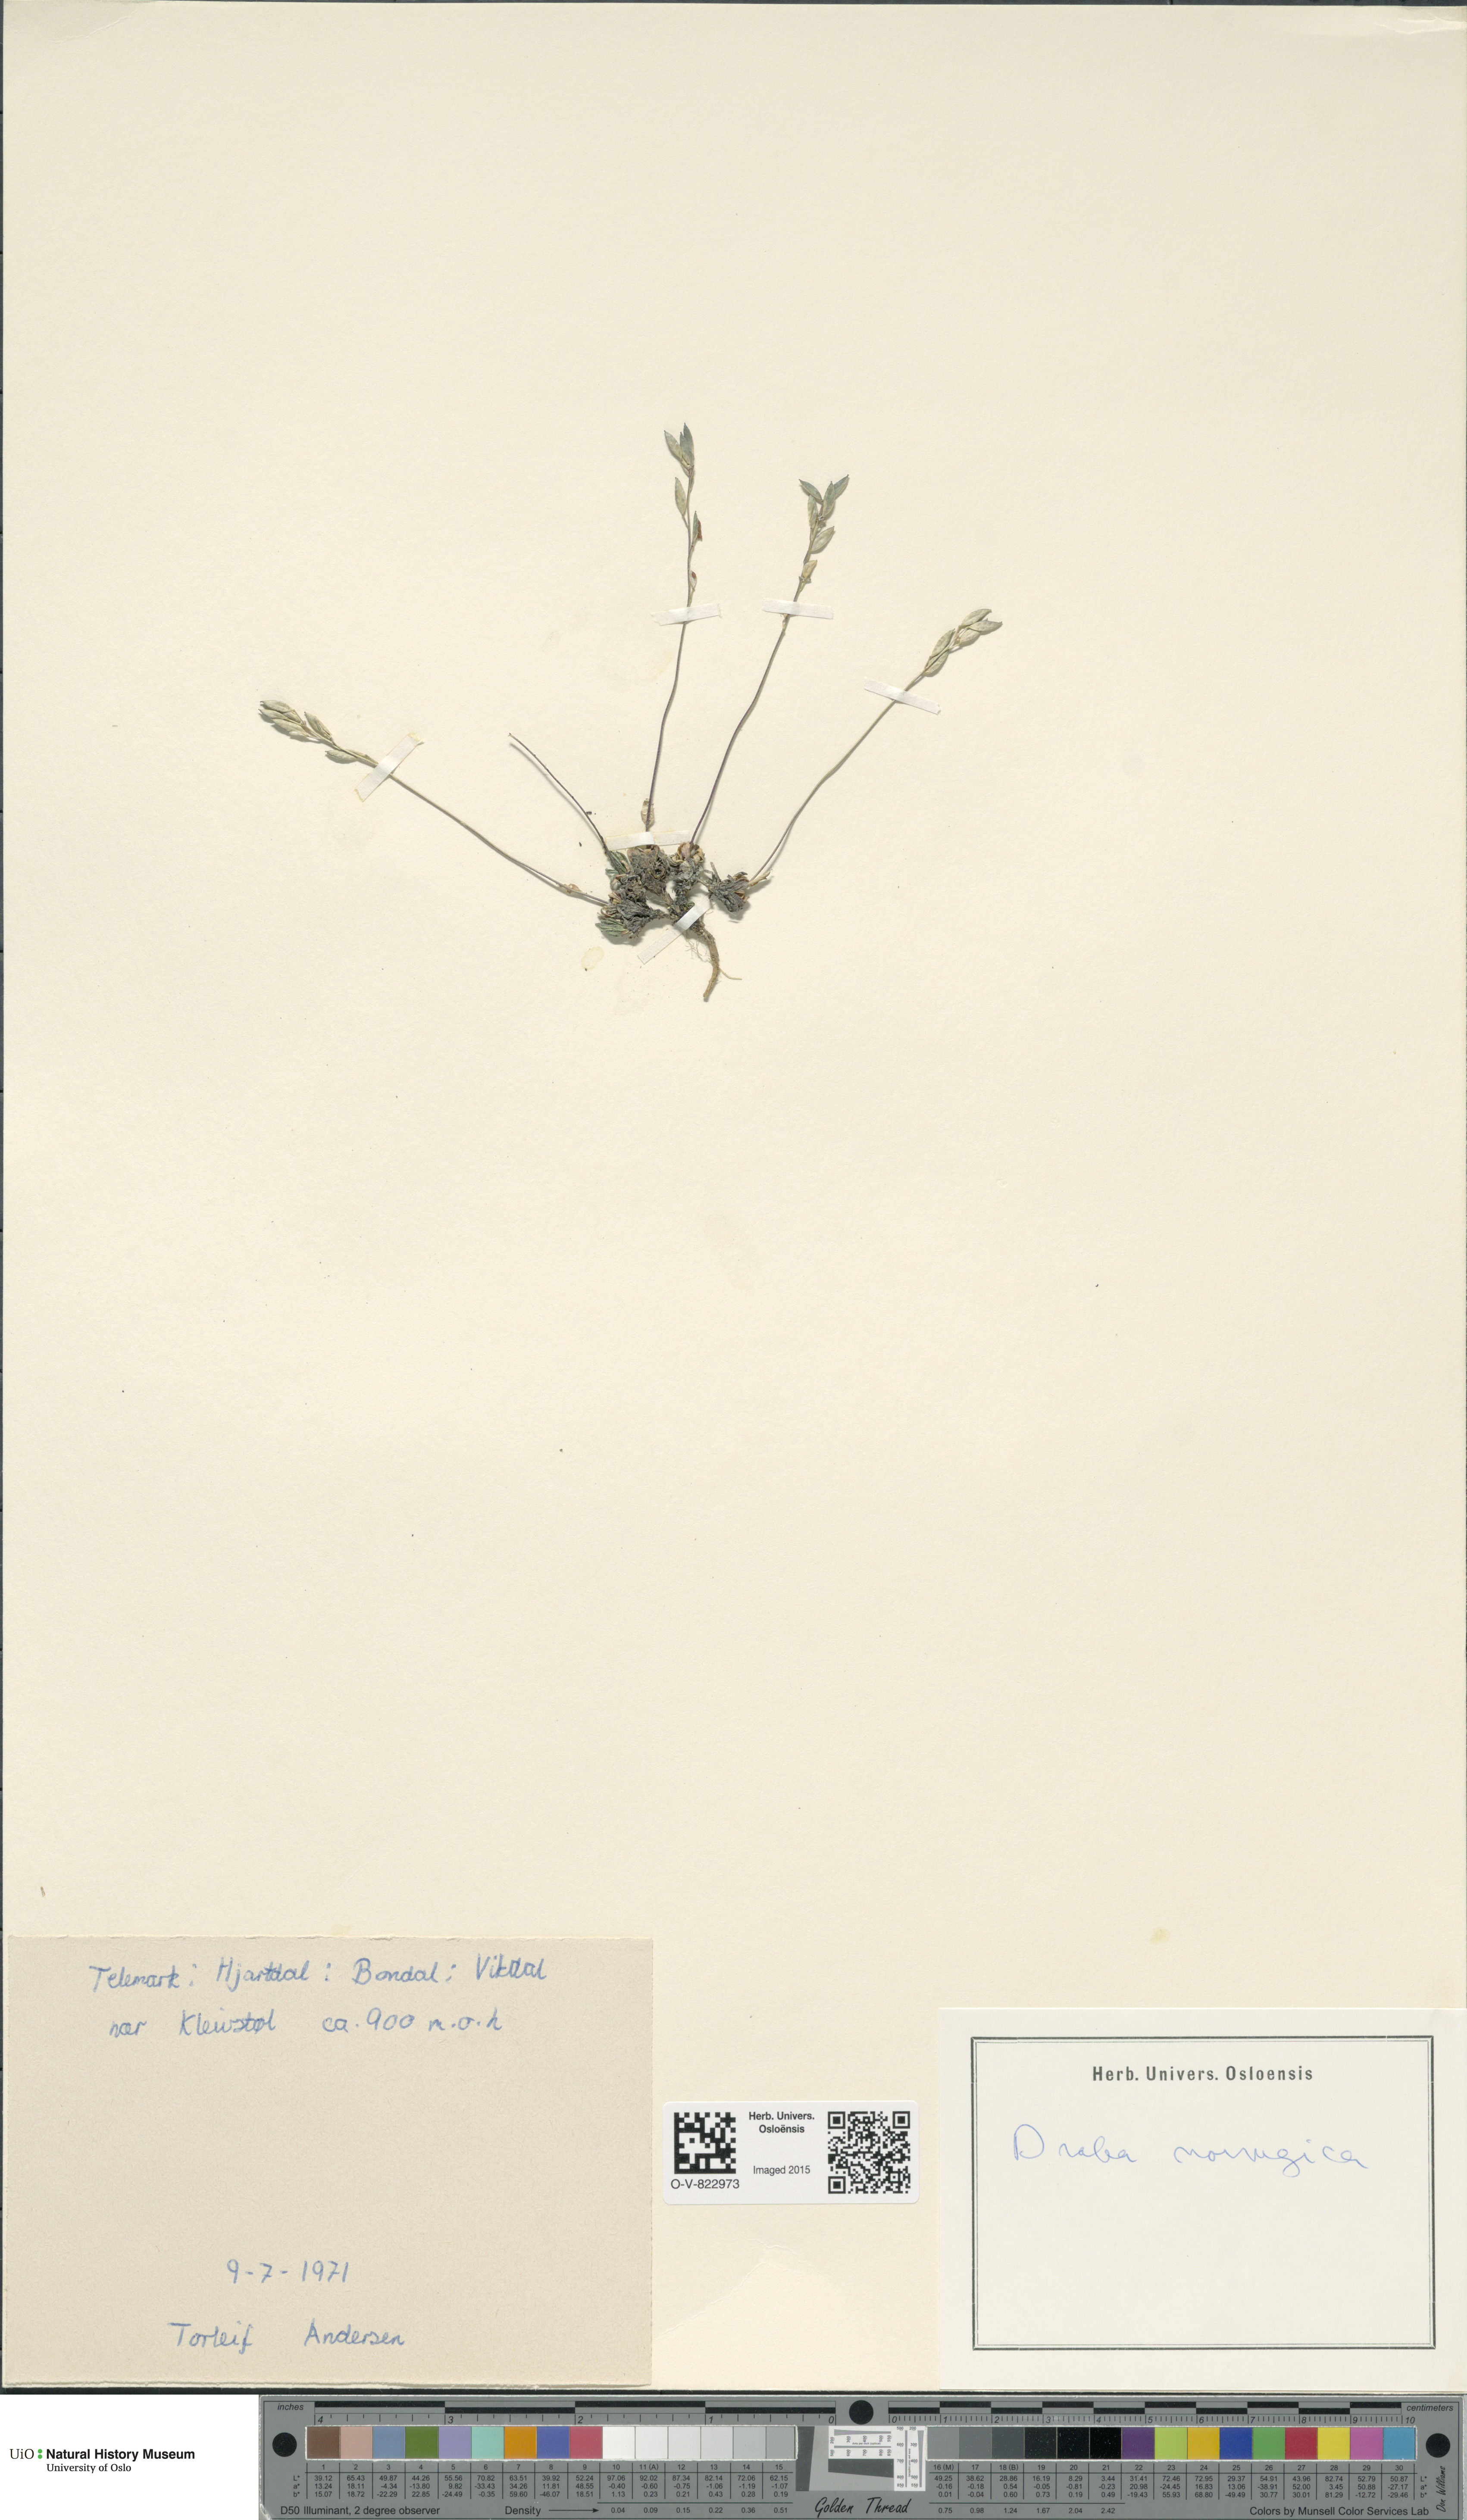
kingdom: Plantae
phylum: Tracheophyta
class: Magnoliopsida
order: Brassicales
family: Brassicaceae
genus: Draba
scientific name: Draba norvegica
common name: Rock whitlowgrass
